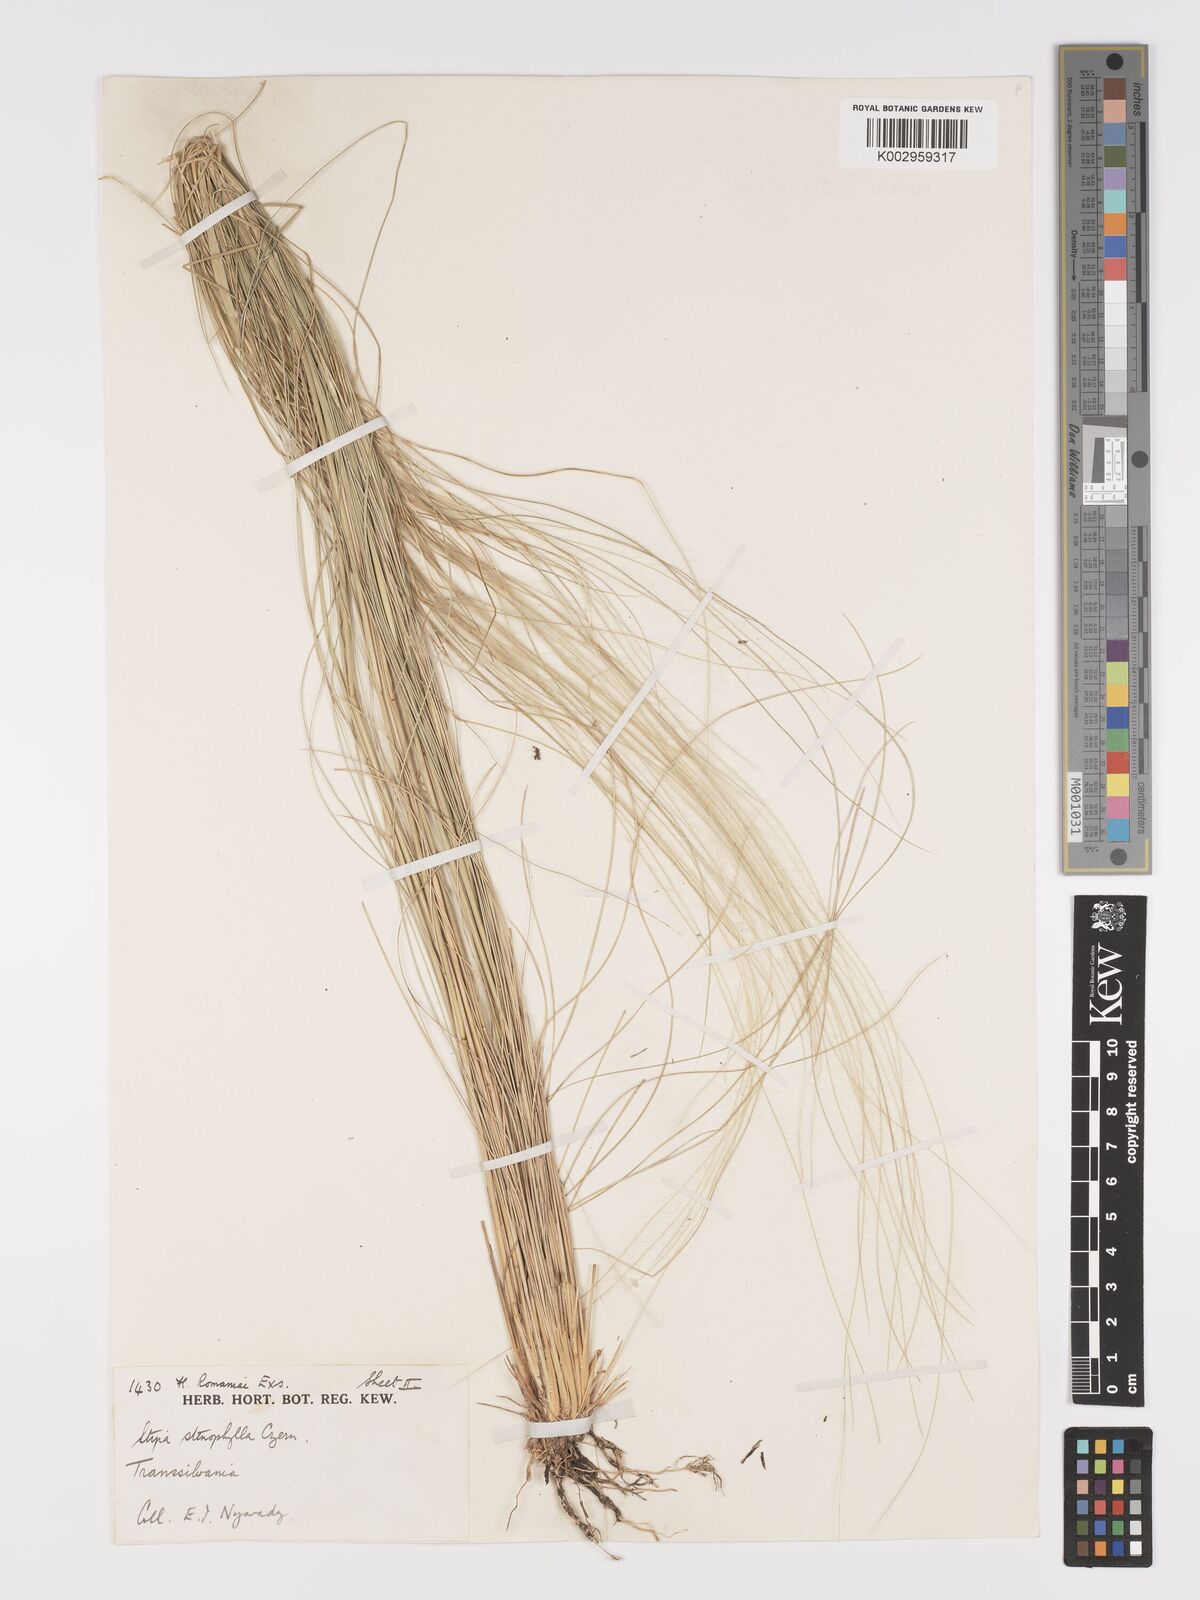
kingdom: Plantae
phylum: Tracheophyta
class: Liliopsida
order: Poales
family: Poaceae
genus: Stipa
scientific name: Stipa tirsa
